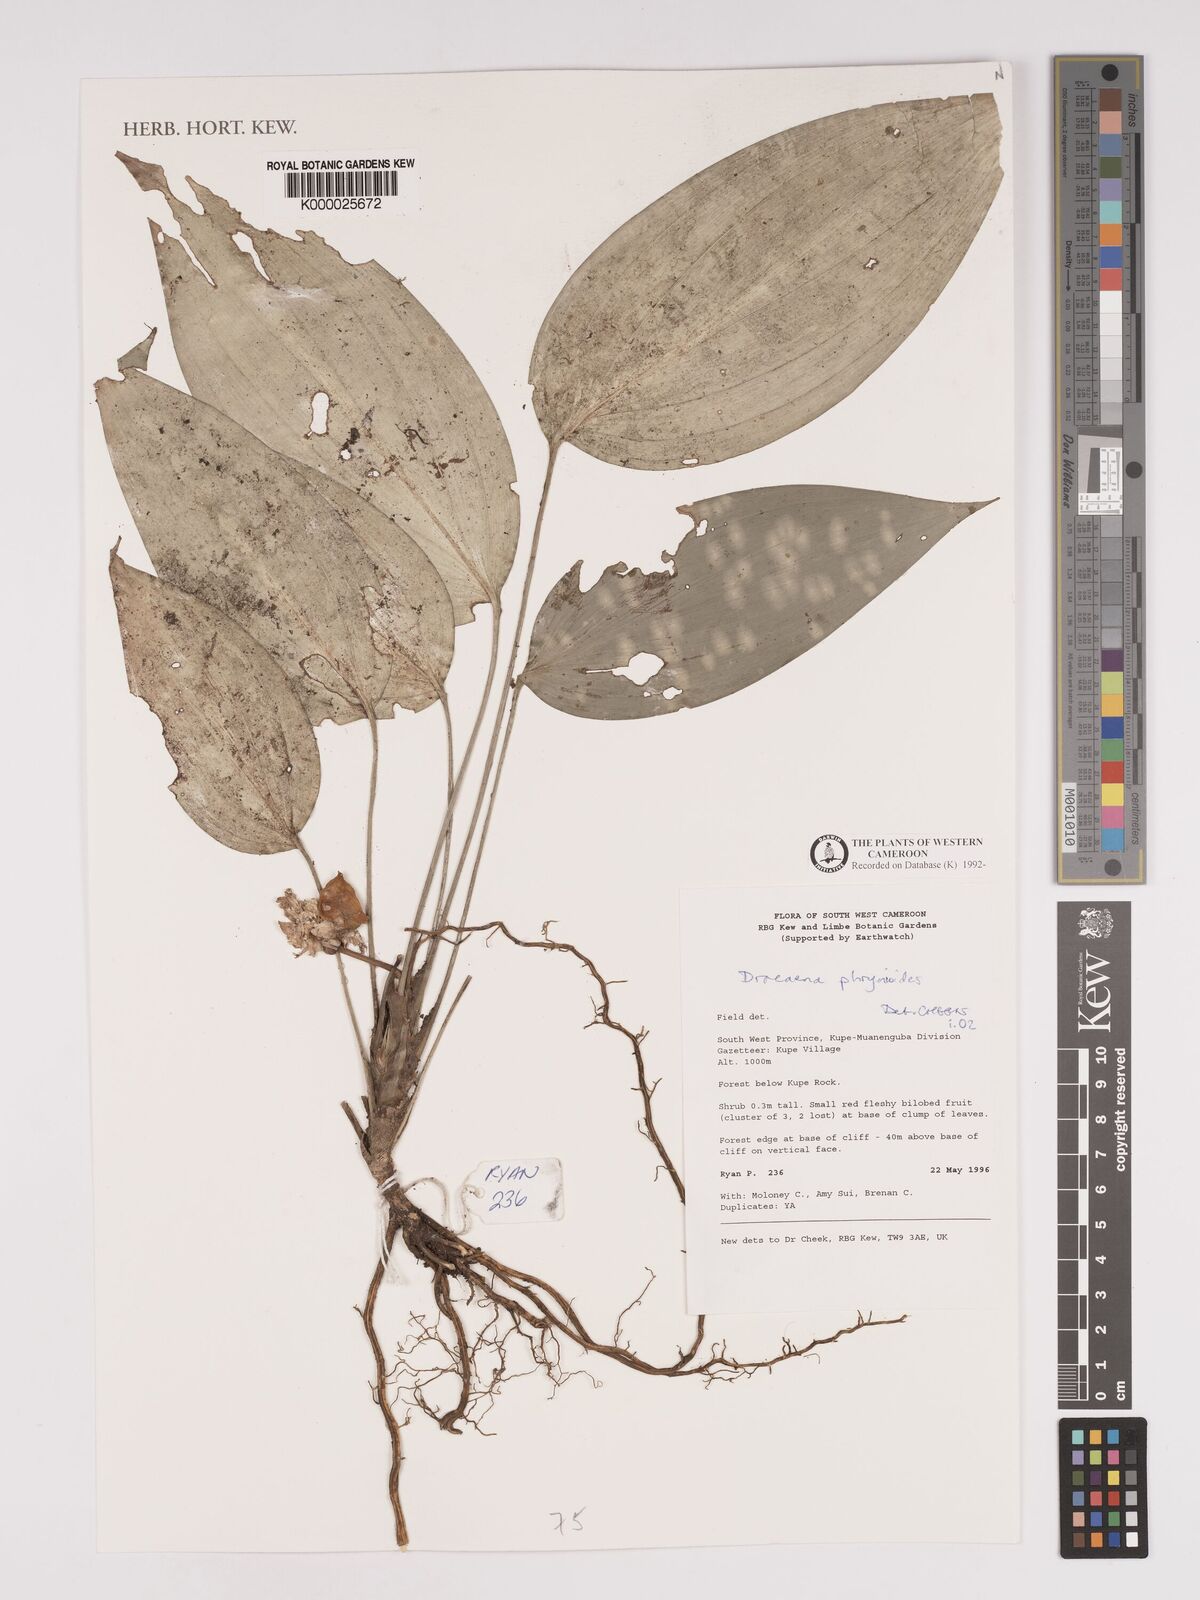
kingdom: Plantae
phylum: Tracheophyta
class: Liliopsida
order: Asparagales
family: Asparagaceae
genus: Dracaena
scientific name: Dracaena phrynioides
